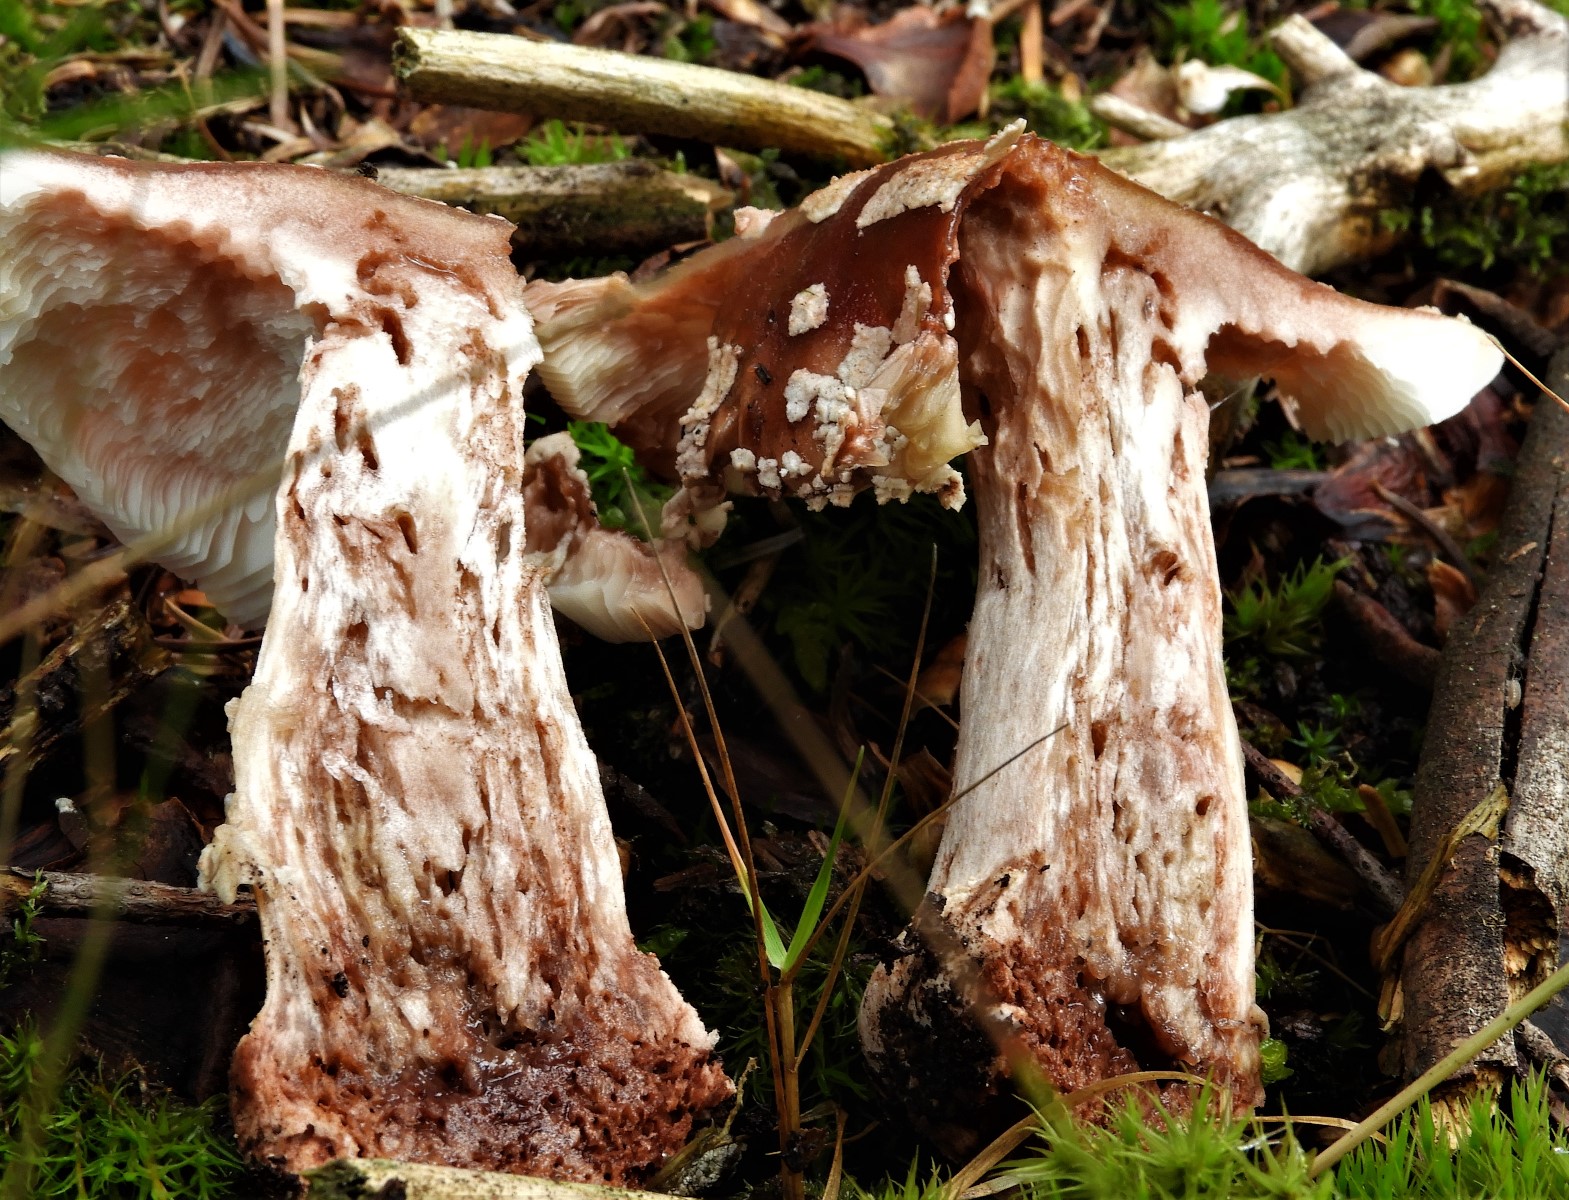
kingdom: Fungi
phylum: Basidiomycota
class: Agaricomycetes
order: Agaricales
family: Amanitaceae
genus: Amanita
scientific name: Amanita rubescens
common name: rødmende fluesvamp
